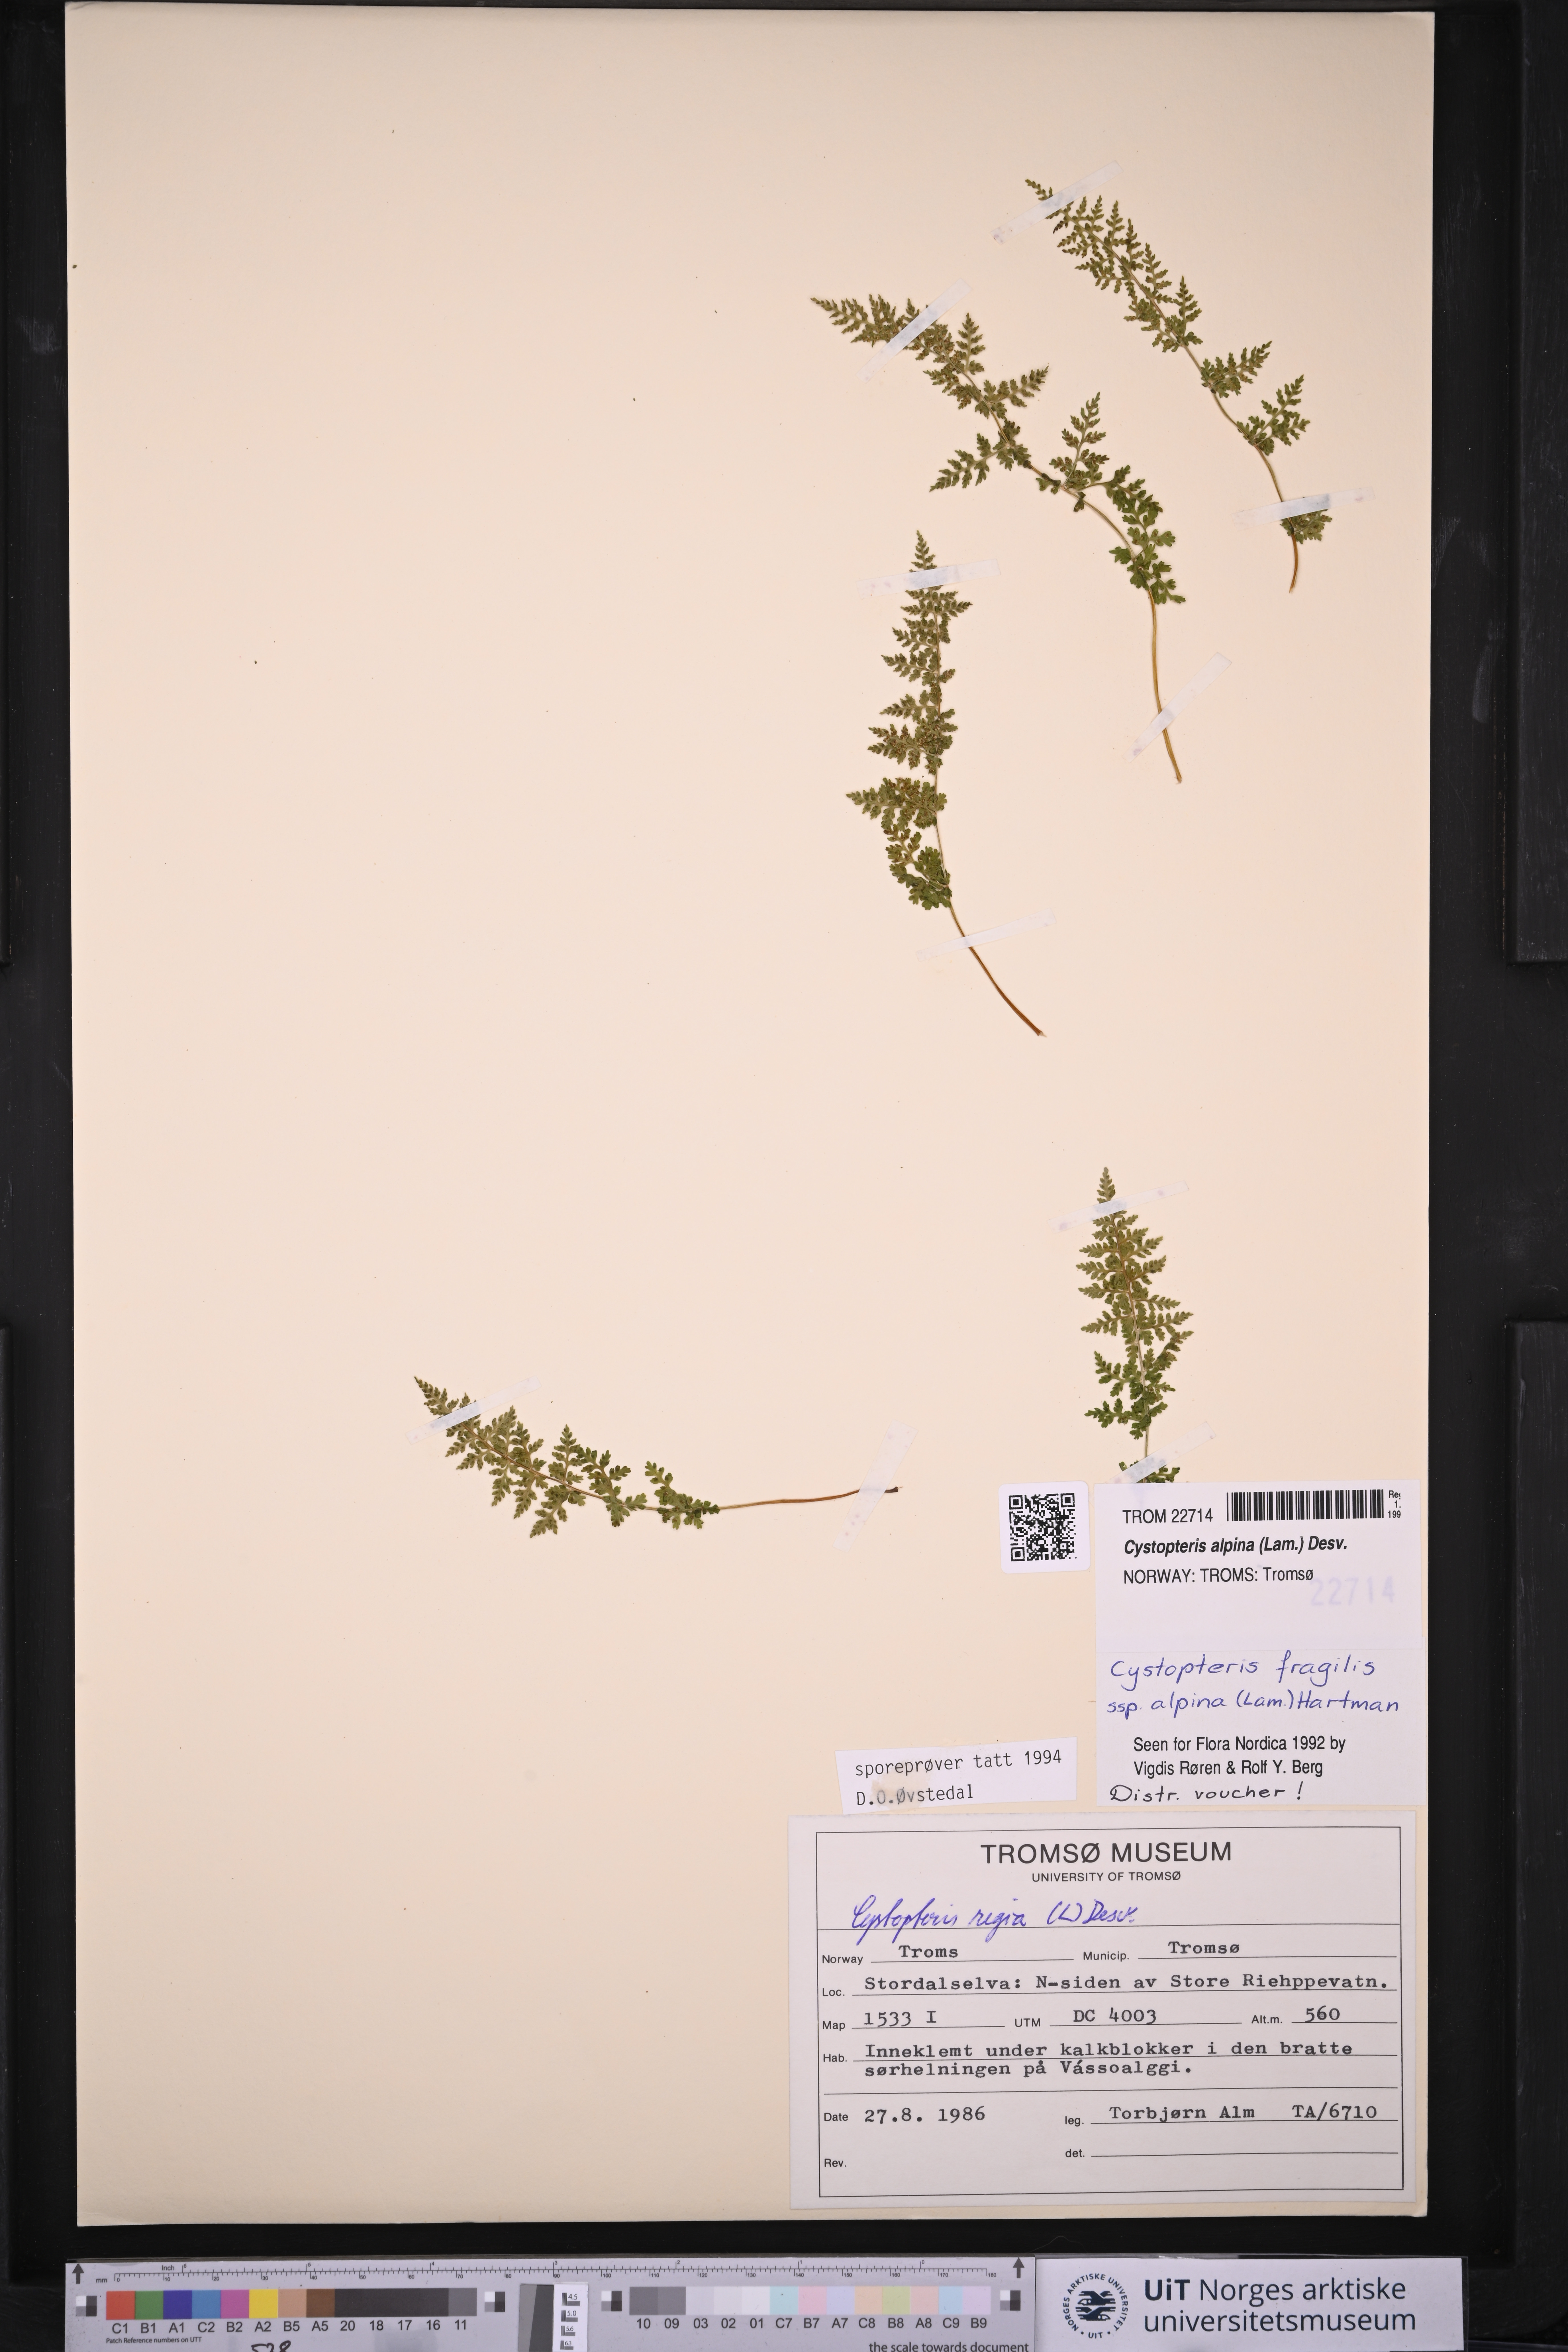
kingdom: Plantae
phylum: Tracheophyta
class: Polypodiopsida
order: Polypodiales
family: Cystopteridaceae
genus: Cystopteris
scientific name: Cystopteris alpina
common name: Alpine bladder-fern
